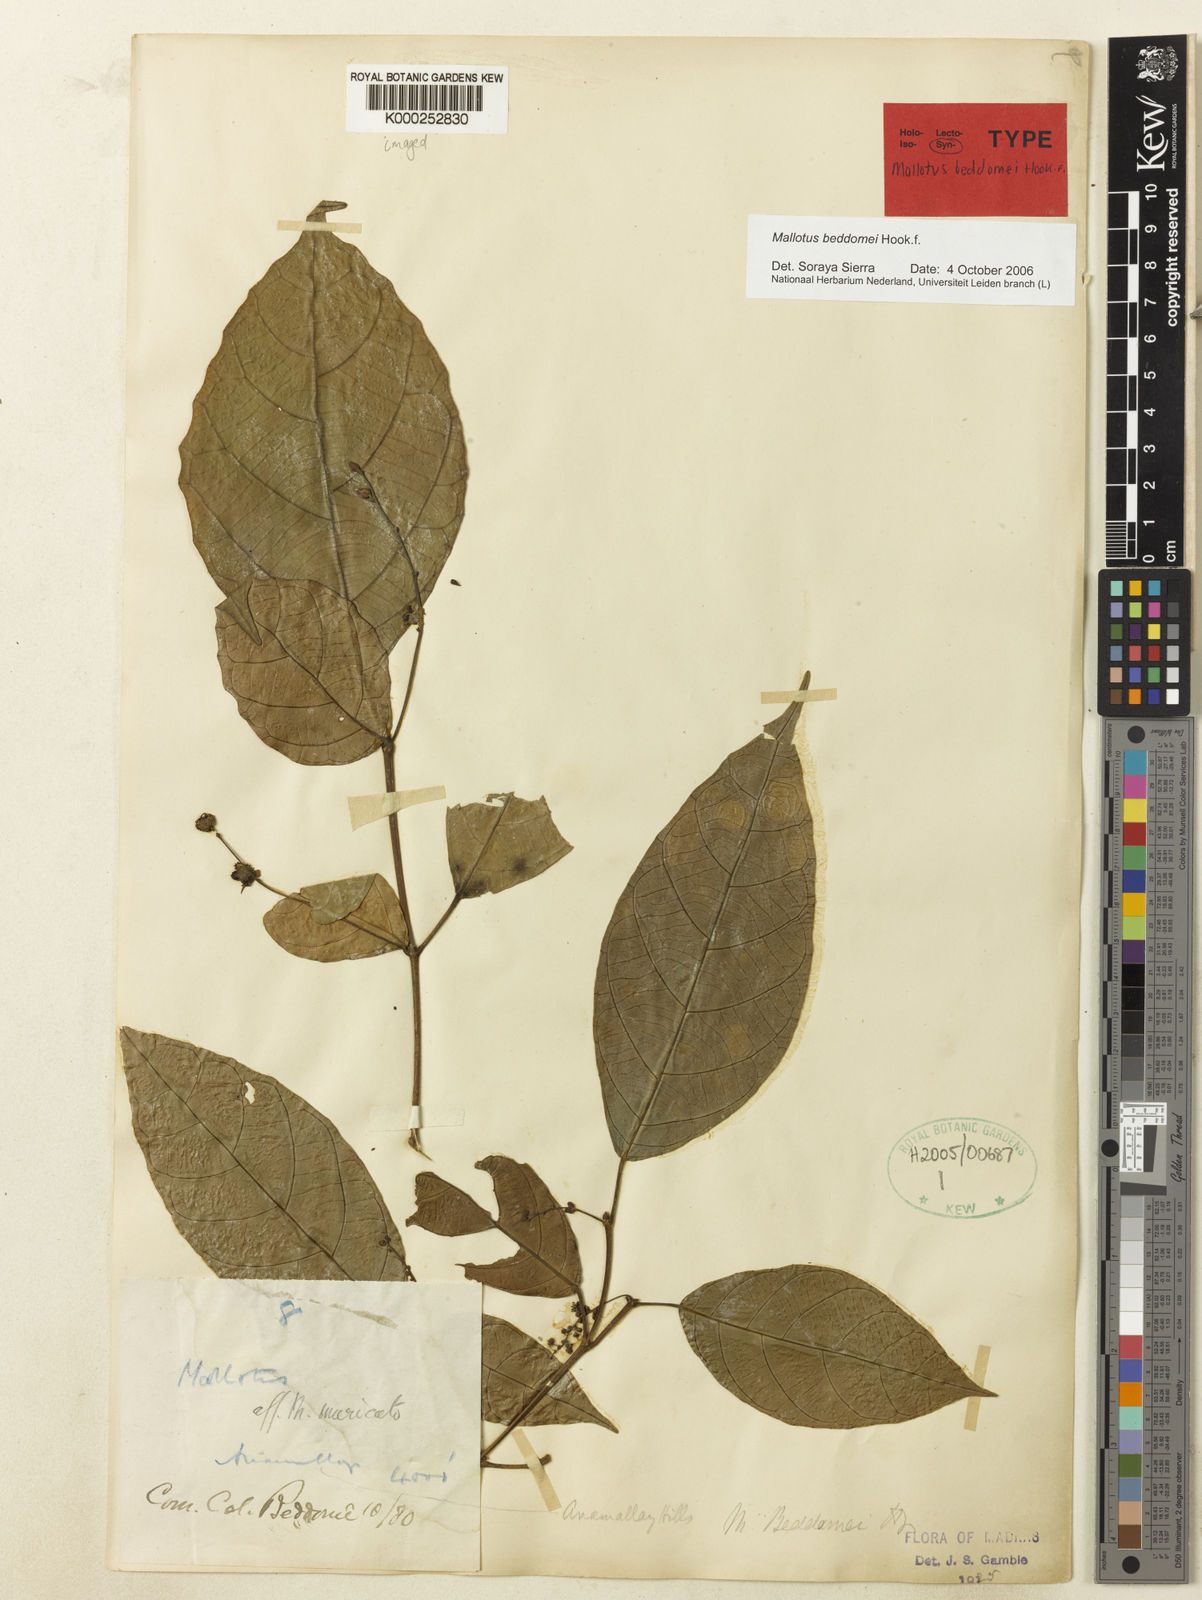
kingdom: Plantae
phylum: Tracheophyta
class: Magnoliopsida
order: Malpighiales
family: Euphorbiaceae
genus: Mallotus
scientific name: Mallotus resinosus
